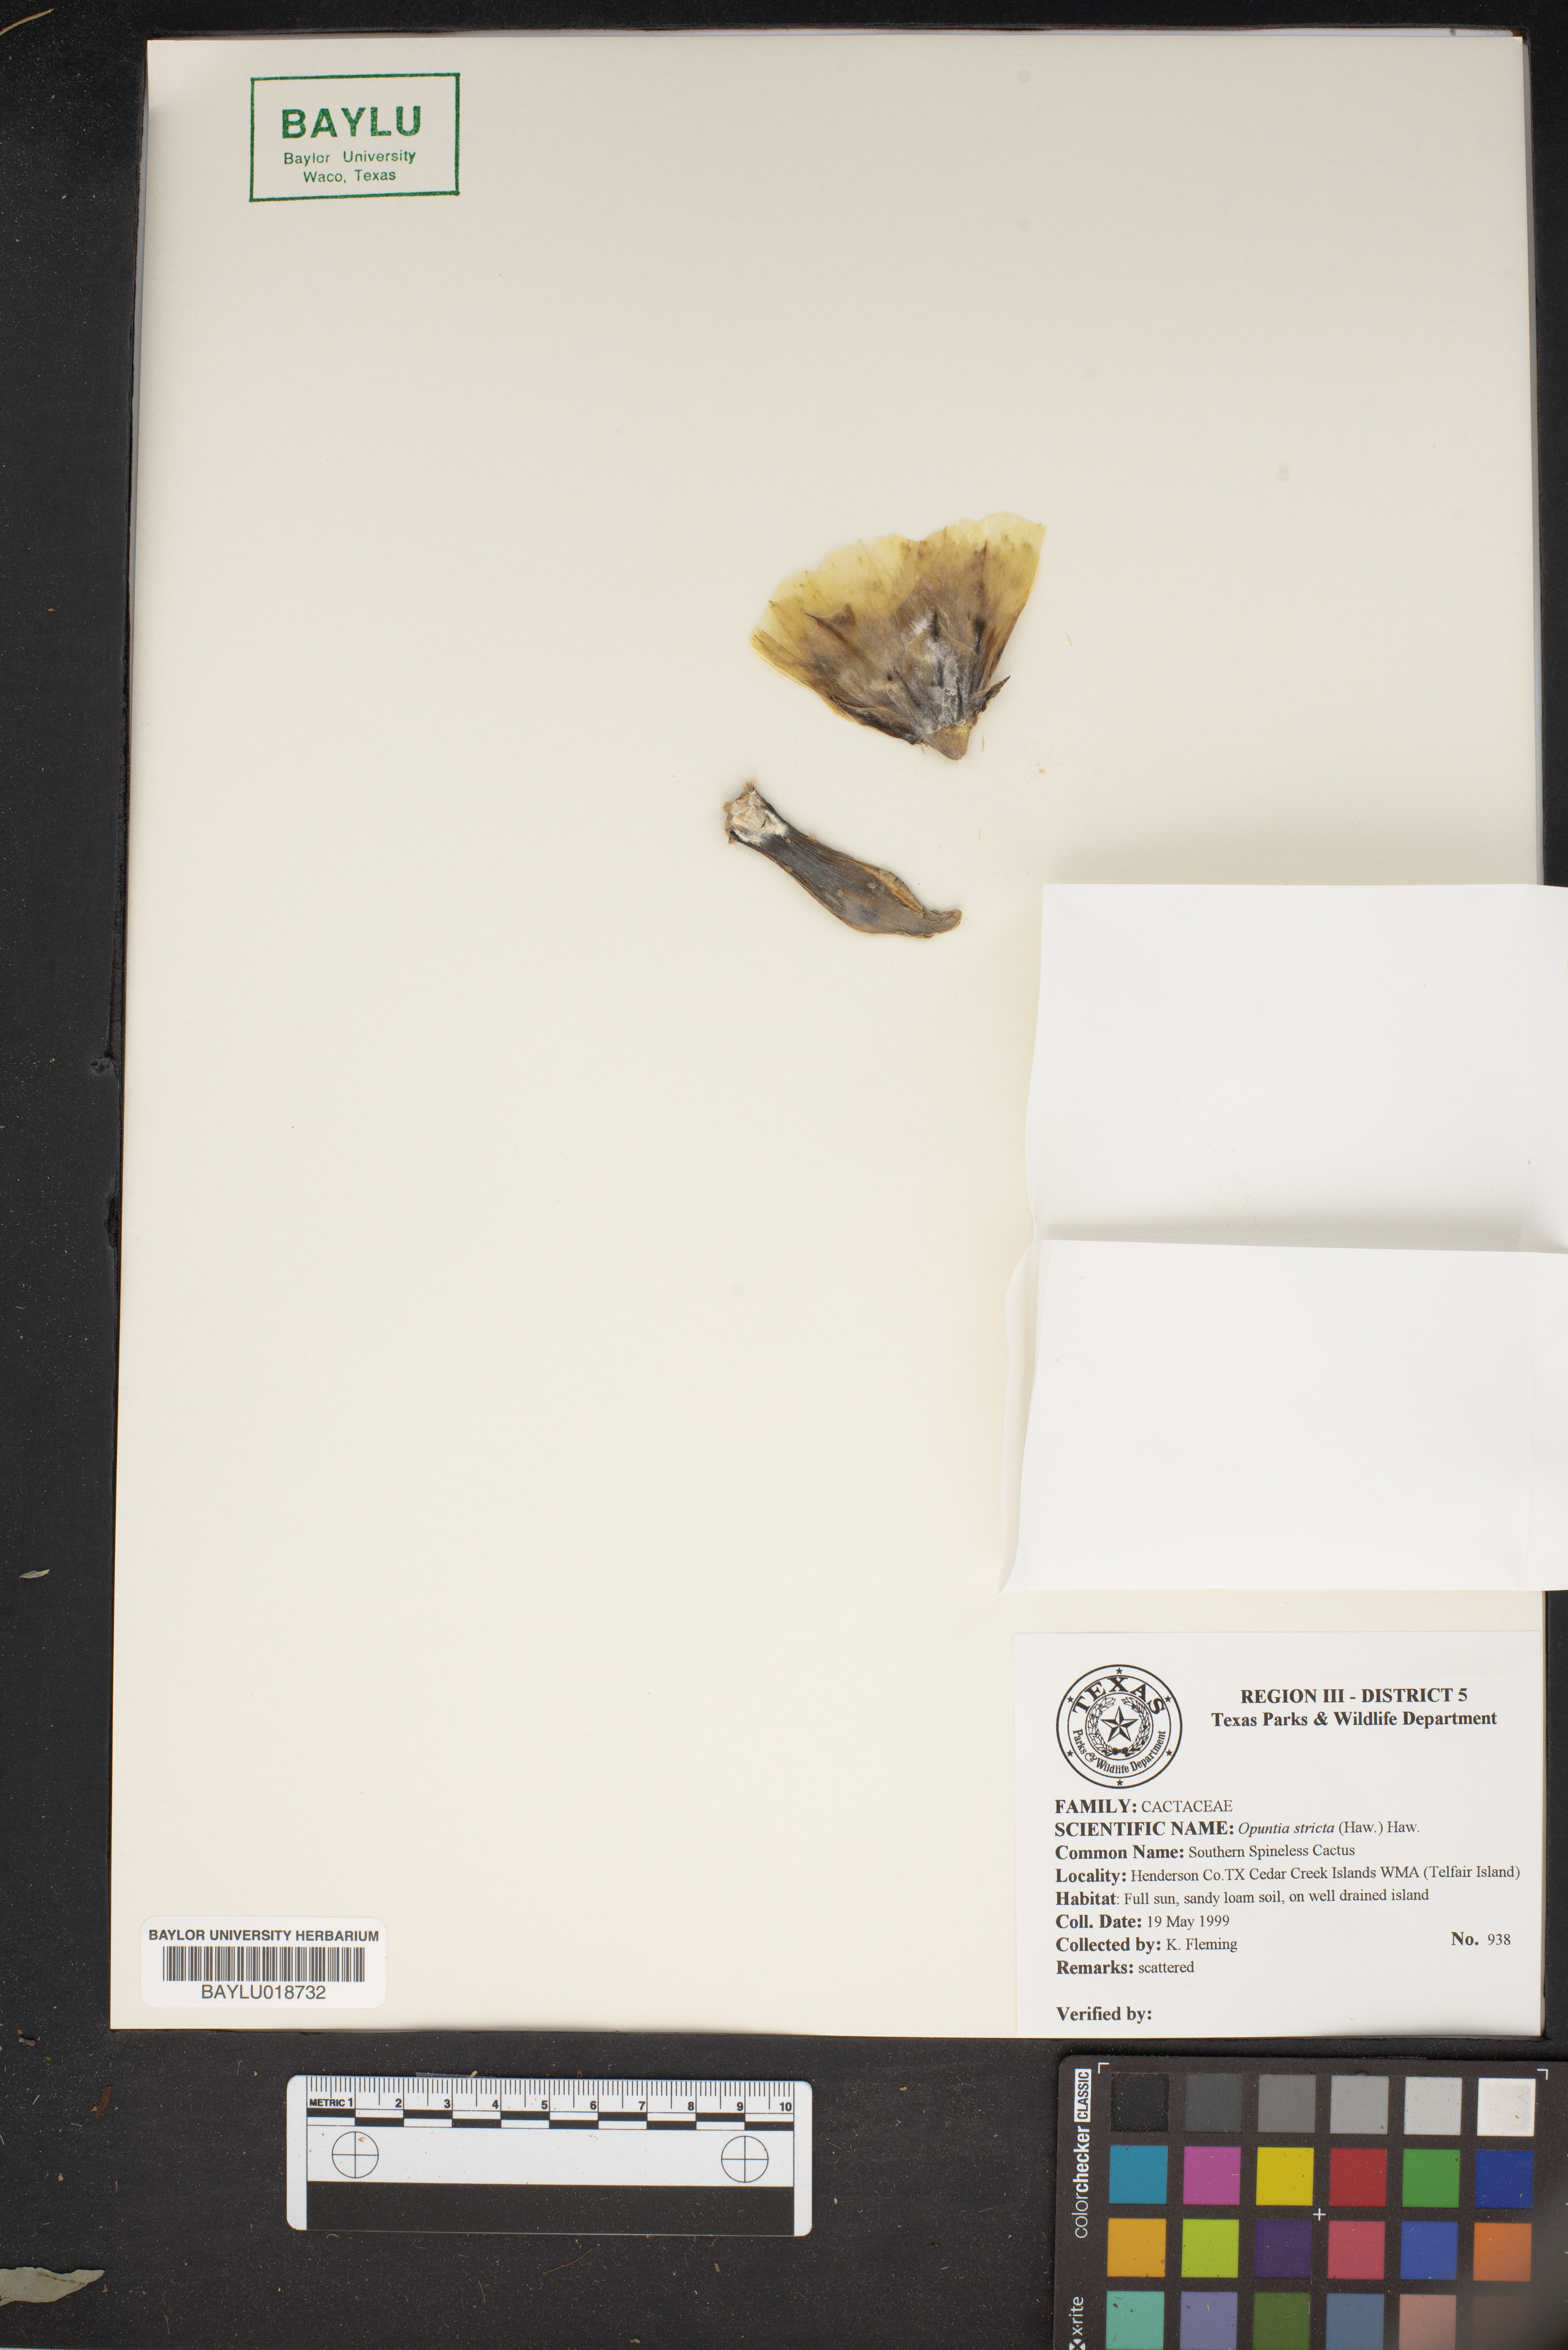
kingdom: Plantae
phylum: Tracheophyta
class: Magnoliopsida
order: Caryophyllales
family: Cactaceae
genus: Opuntia
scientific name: Opuntia stricta
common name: Erect pricklypear
